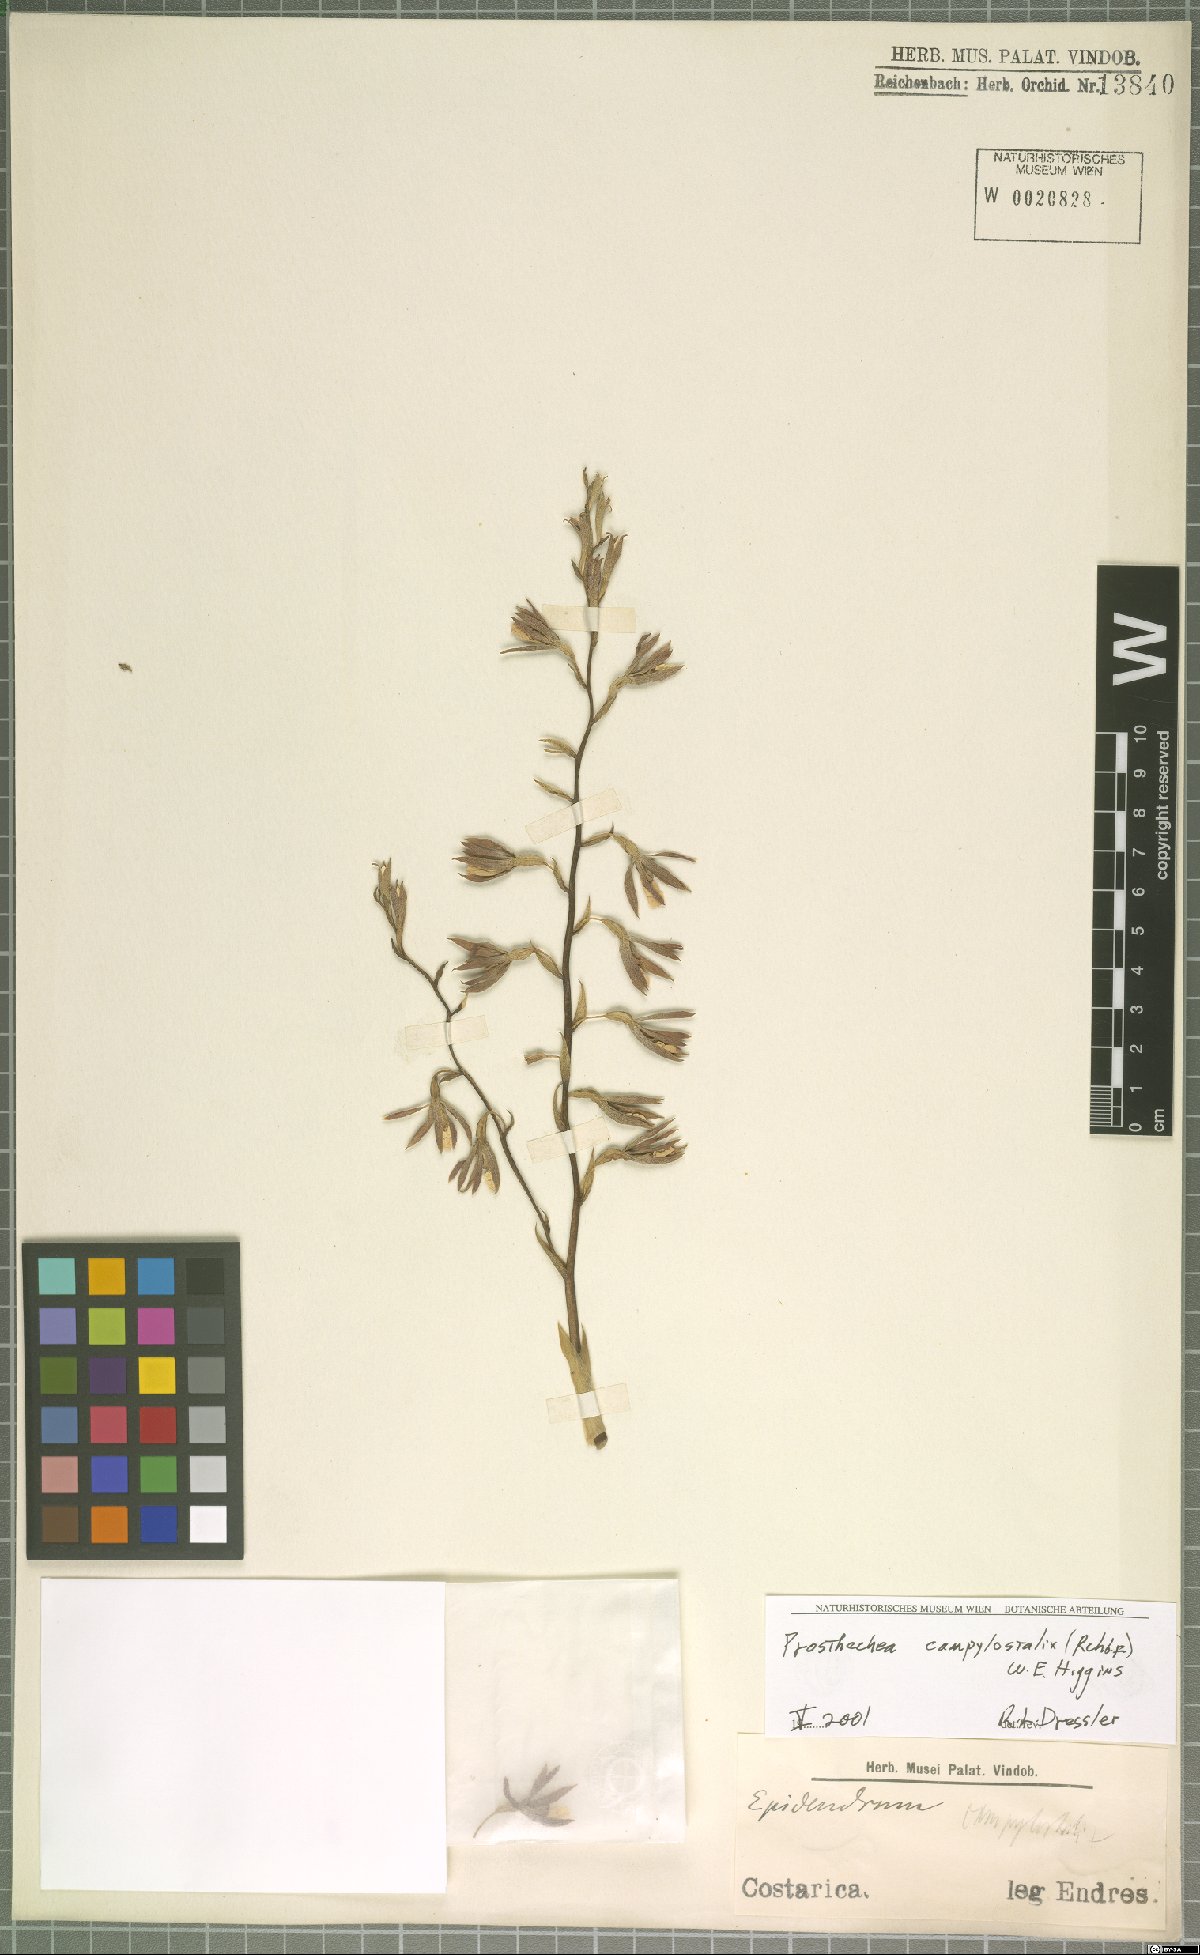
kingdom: Plantae
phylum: Tracheophyta
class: Liliopsida
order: Asparagales
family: Orchidaceae
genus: Prosthechea
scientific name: Prosthechea campylostalix
